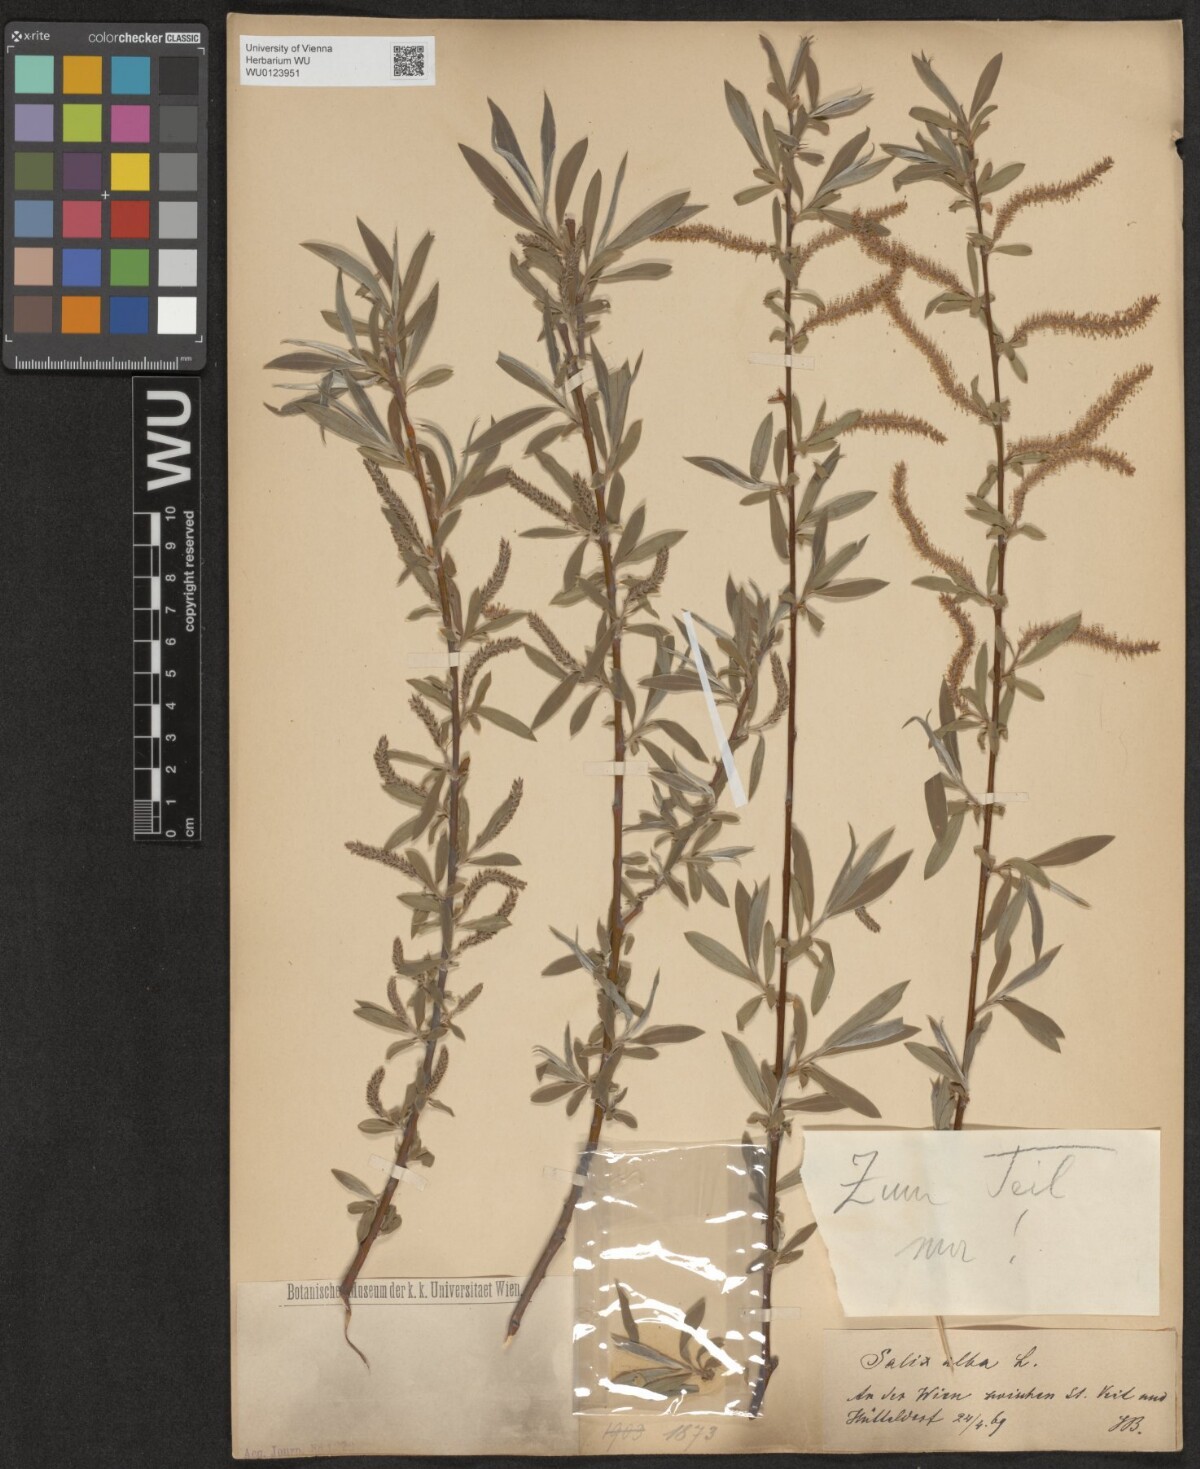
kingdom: Plantae
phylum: Tracheophyta
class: Magnoliopsida
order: Malpighiales
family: Salicaceae
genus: Salix
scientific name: Salix alba
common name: White willow
